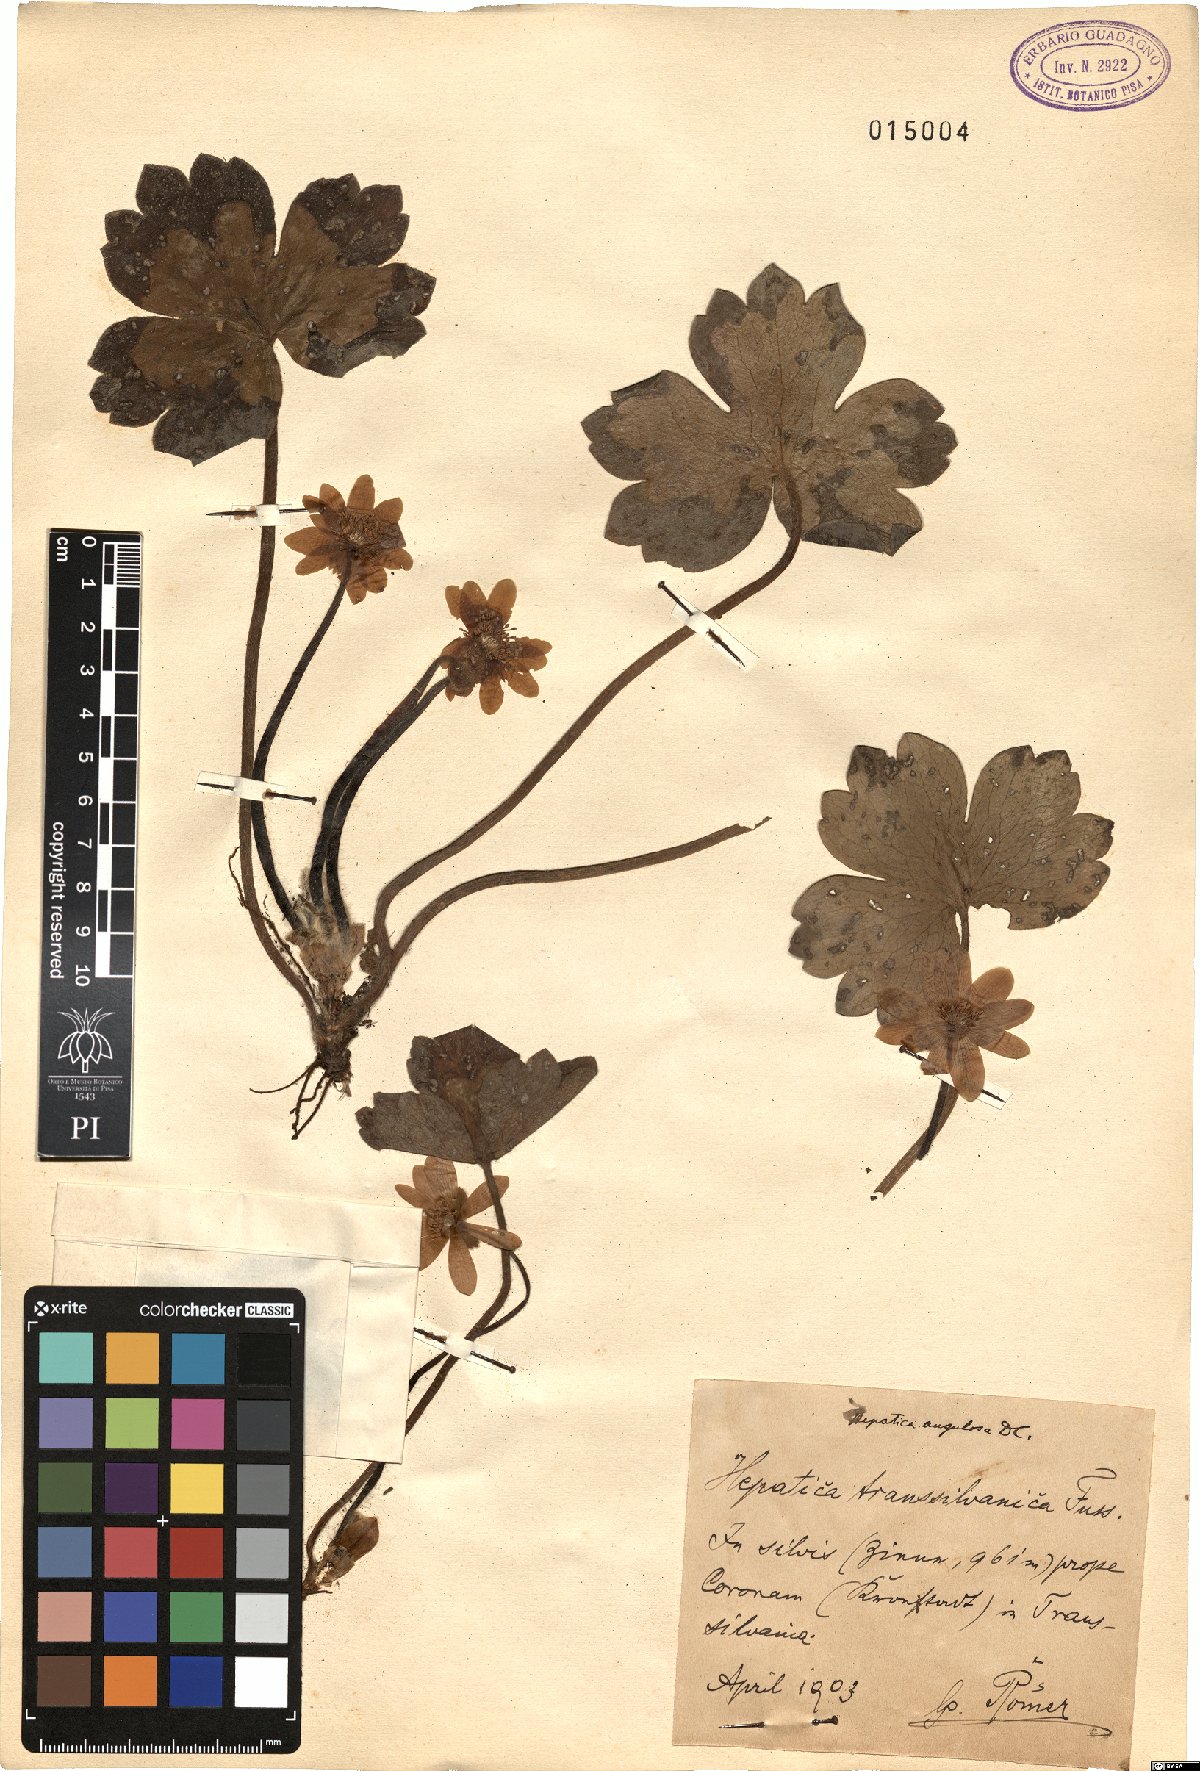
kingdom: Plantae
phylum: Tracheophyta
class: Magnoliopsida
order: Ranunculales
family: Ranunculaceae
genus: Hepatica
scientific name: Hepatica transsilvanica
